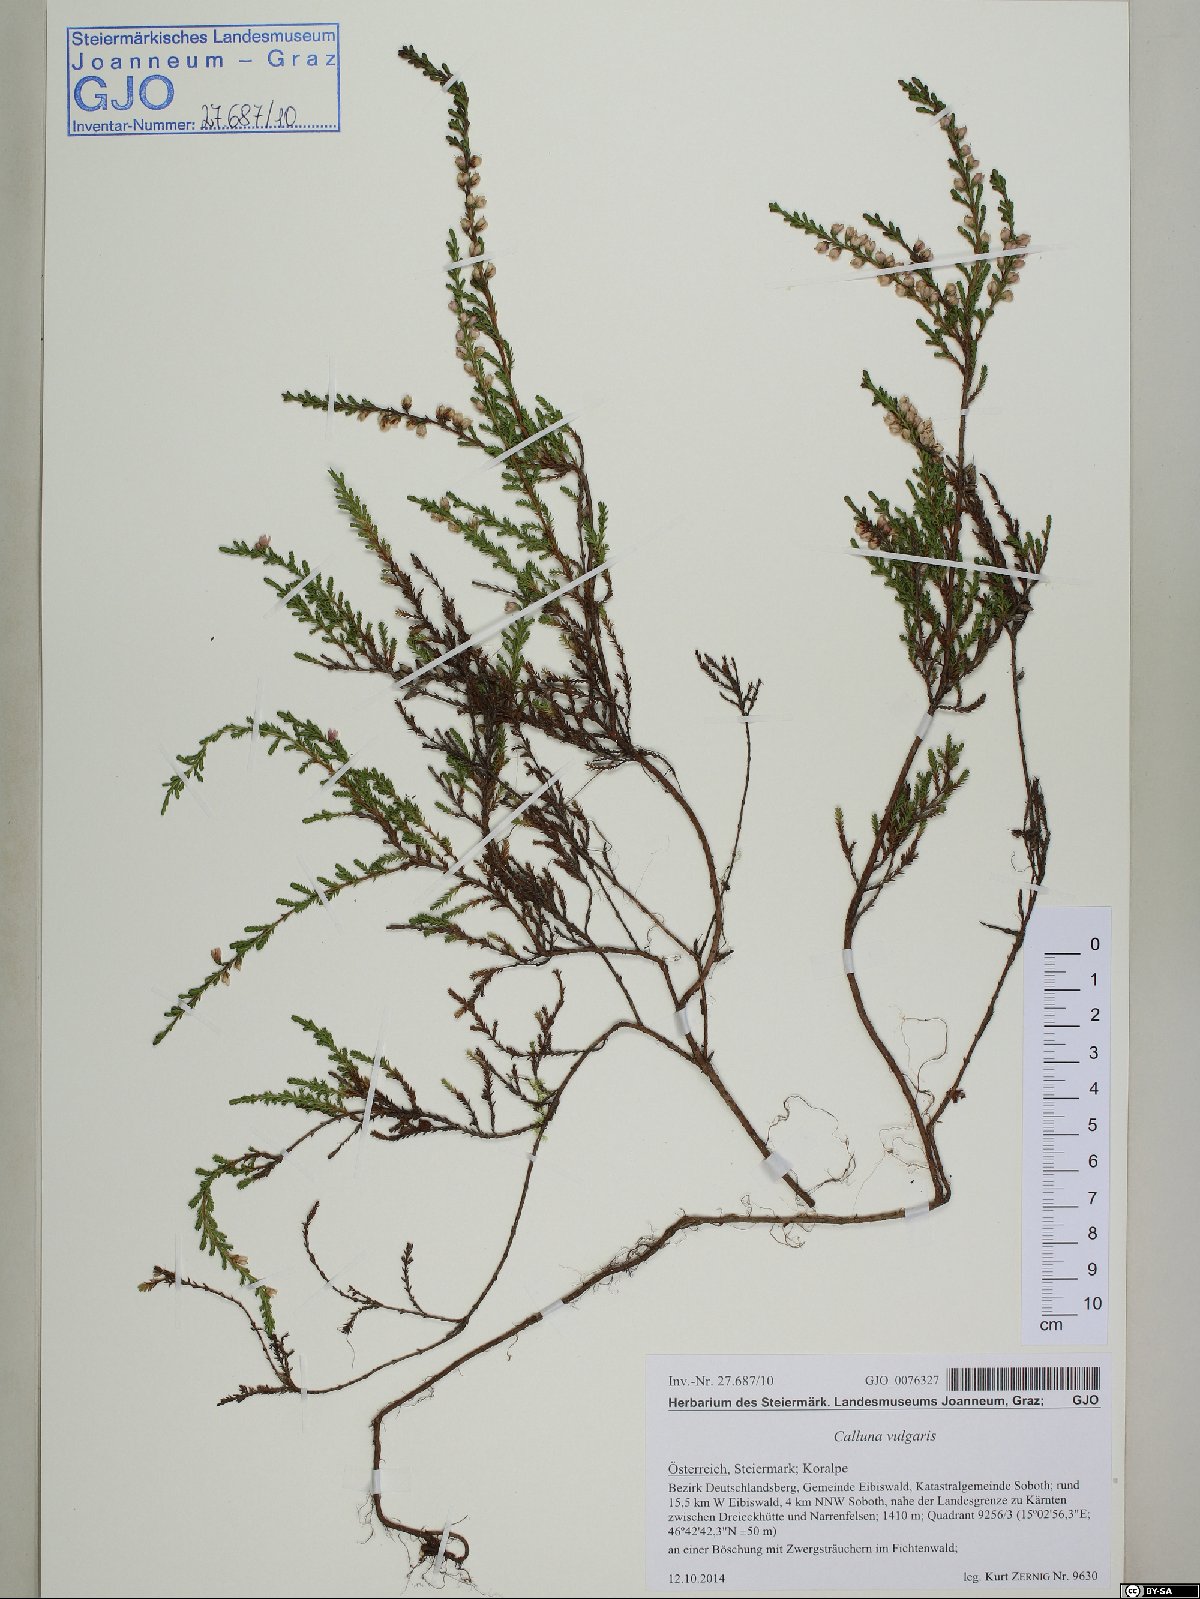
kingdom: Plantae
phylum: Tracheophyta
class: Magnoliopsida
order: Ericales
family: Ericaceae
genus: Calluna
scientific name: Calluna vulgaris
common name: Heather
